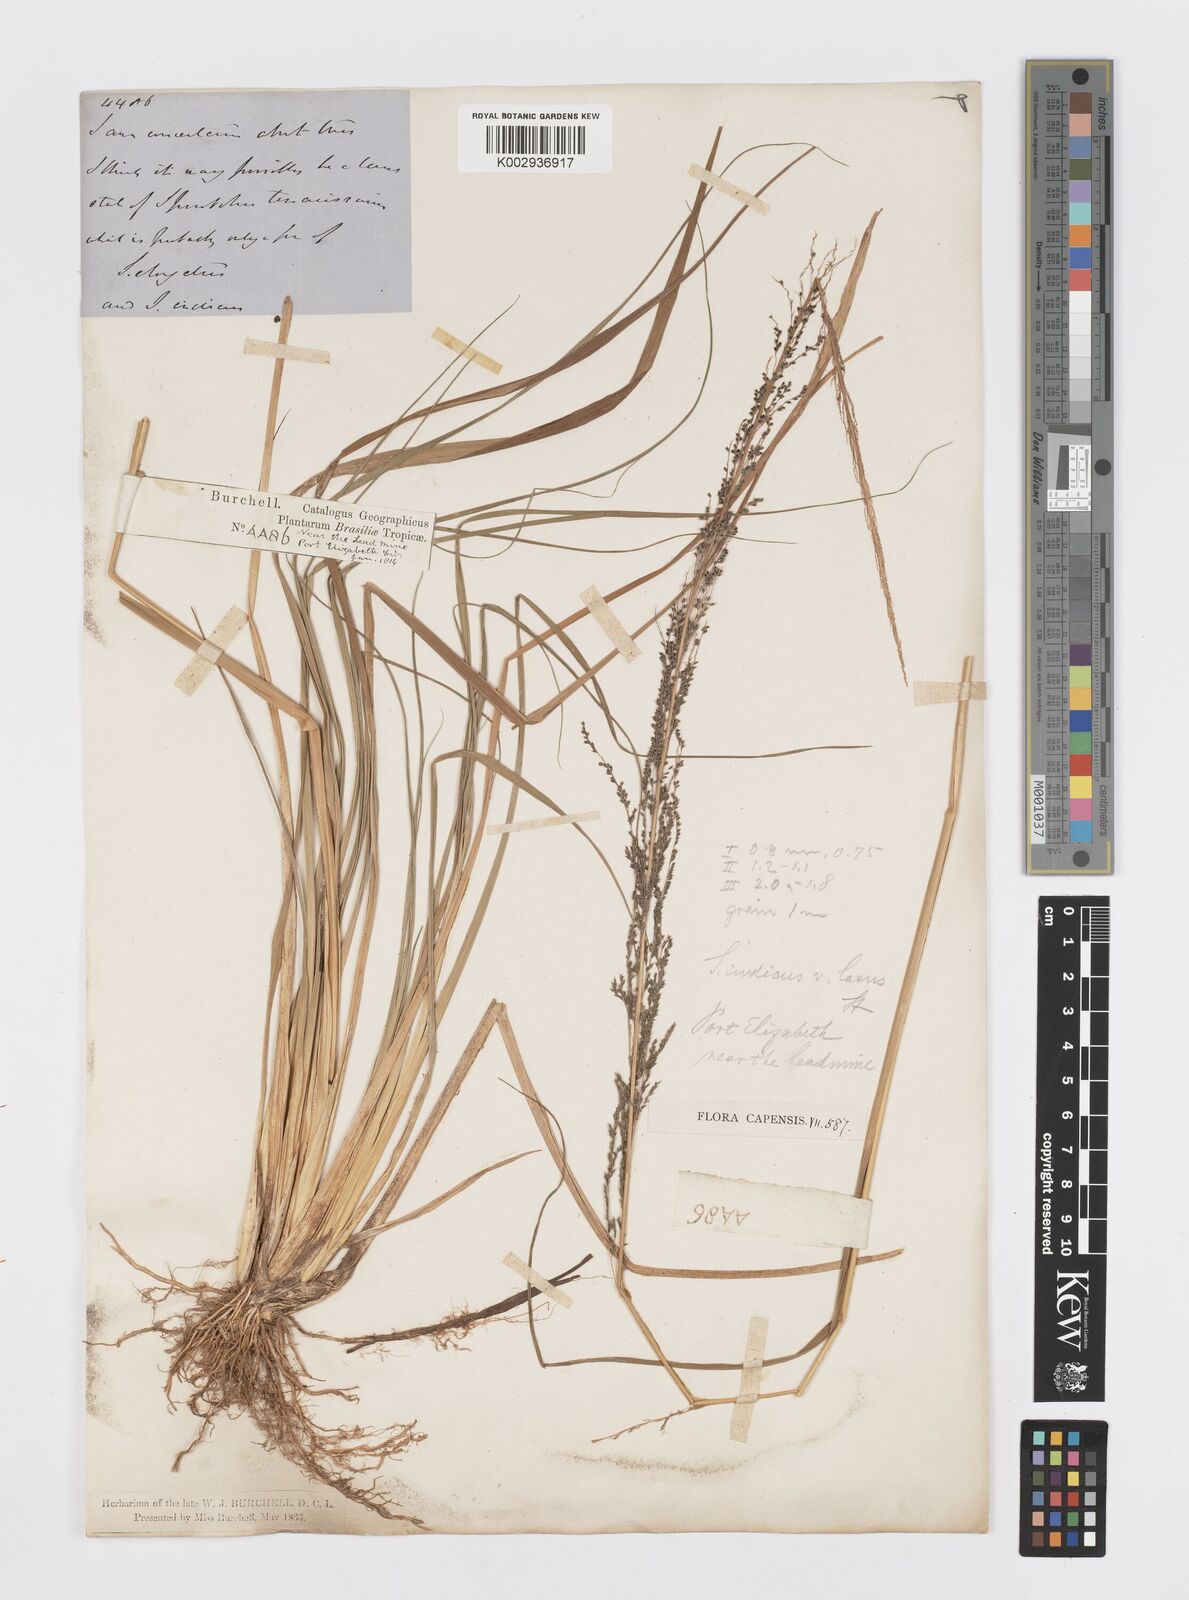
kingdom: Plantae
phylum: Tracheophyta
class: Liliopsida
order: Poales
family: Poaceae
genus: Sporobolus
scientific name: Sporobolus natalensis
